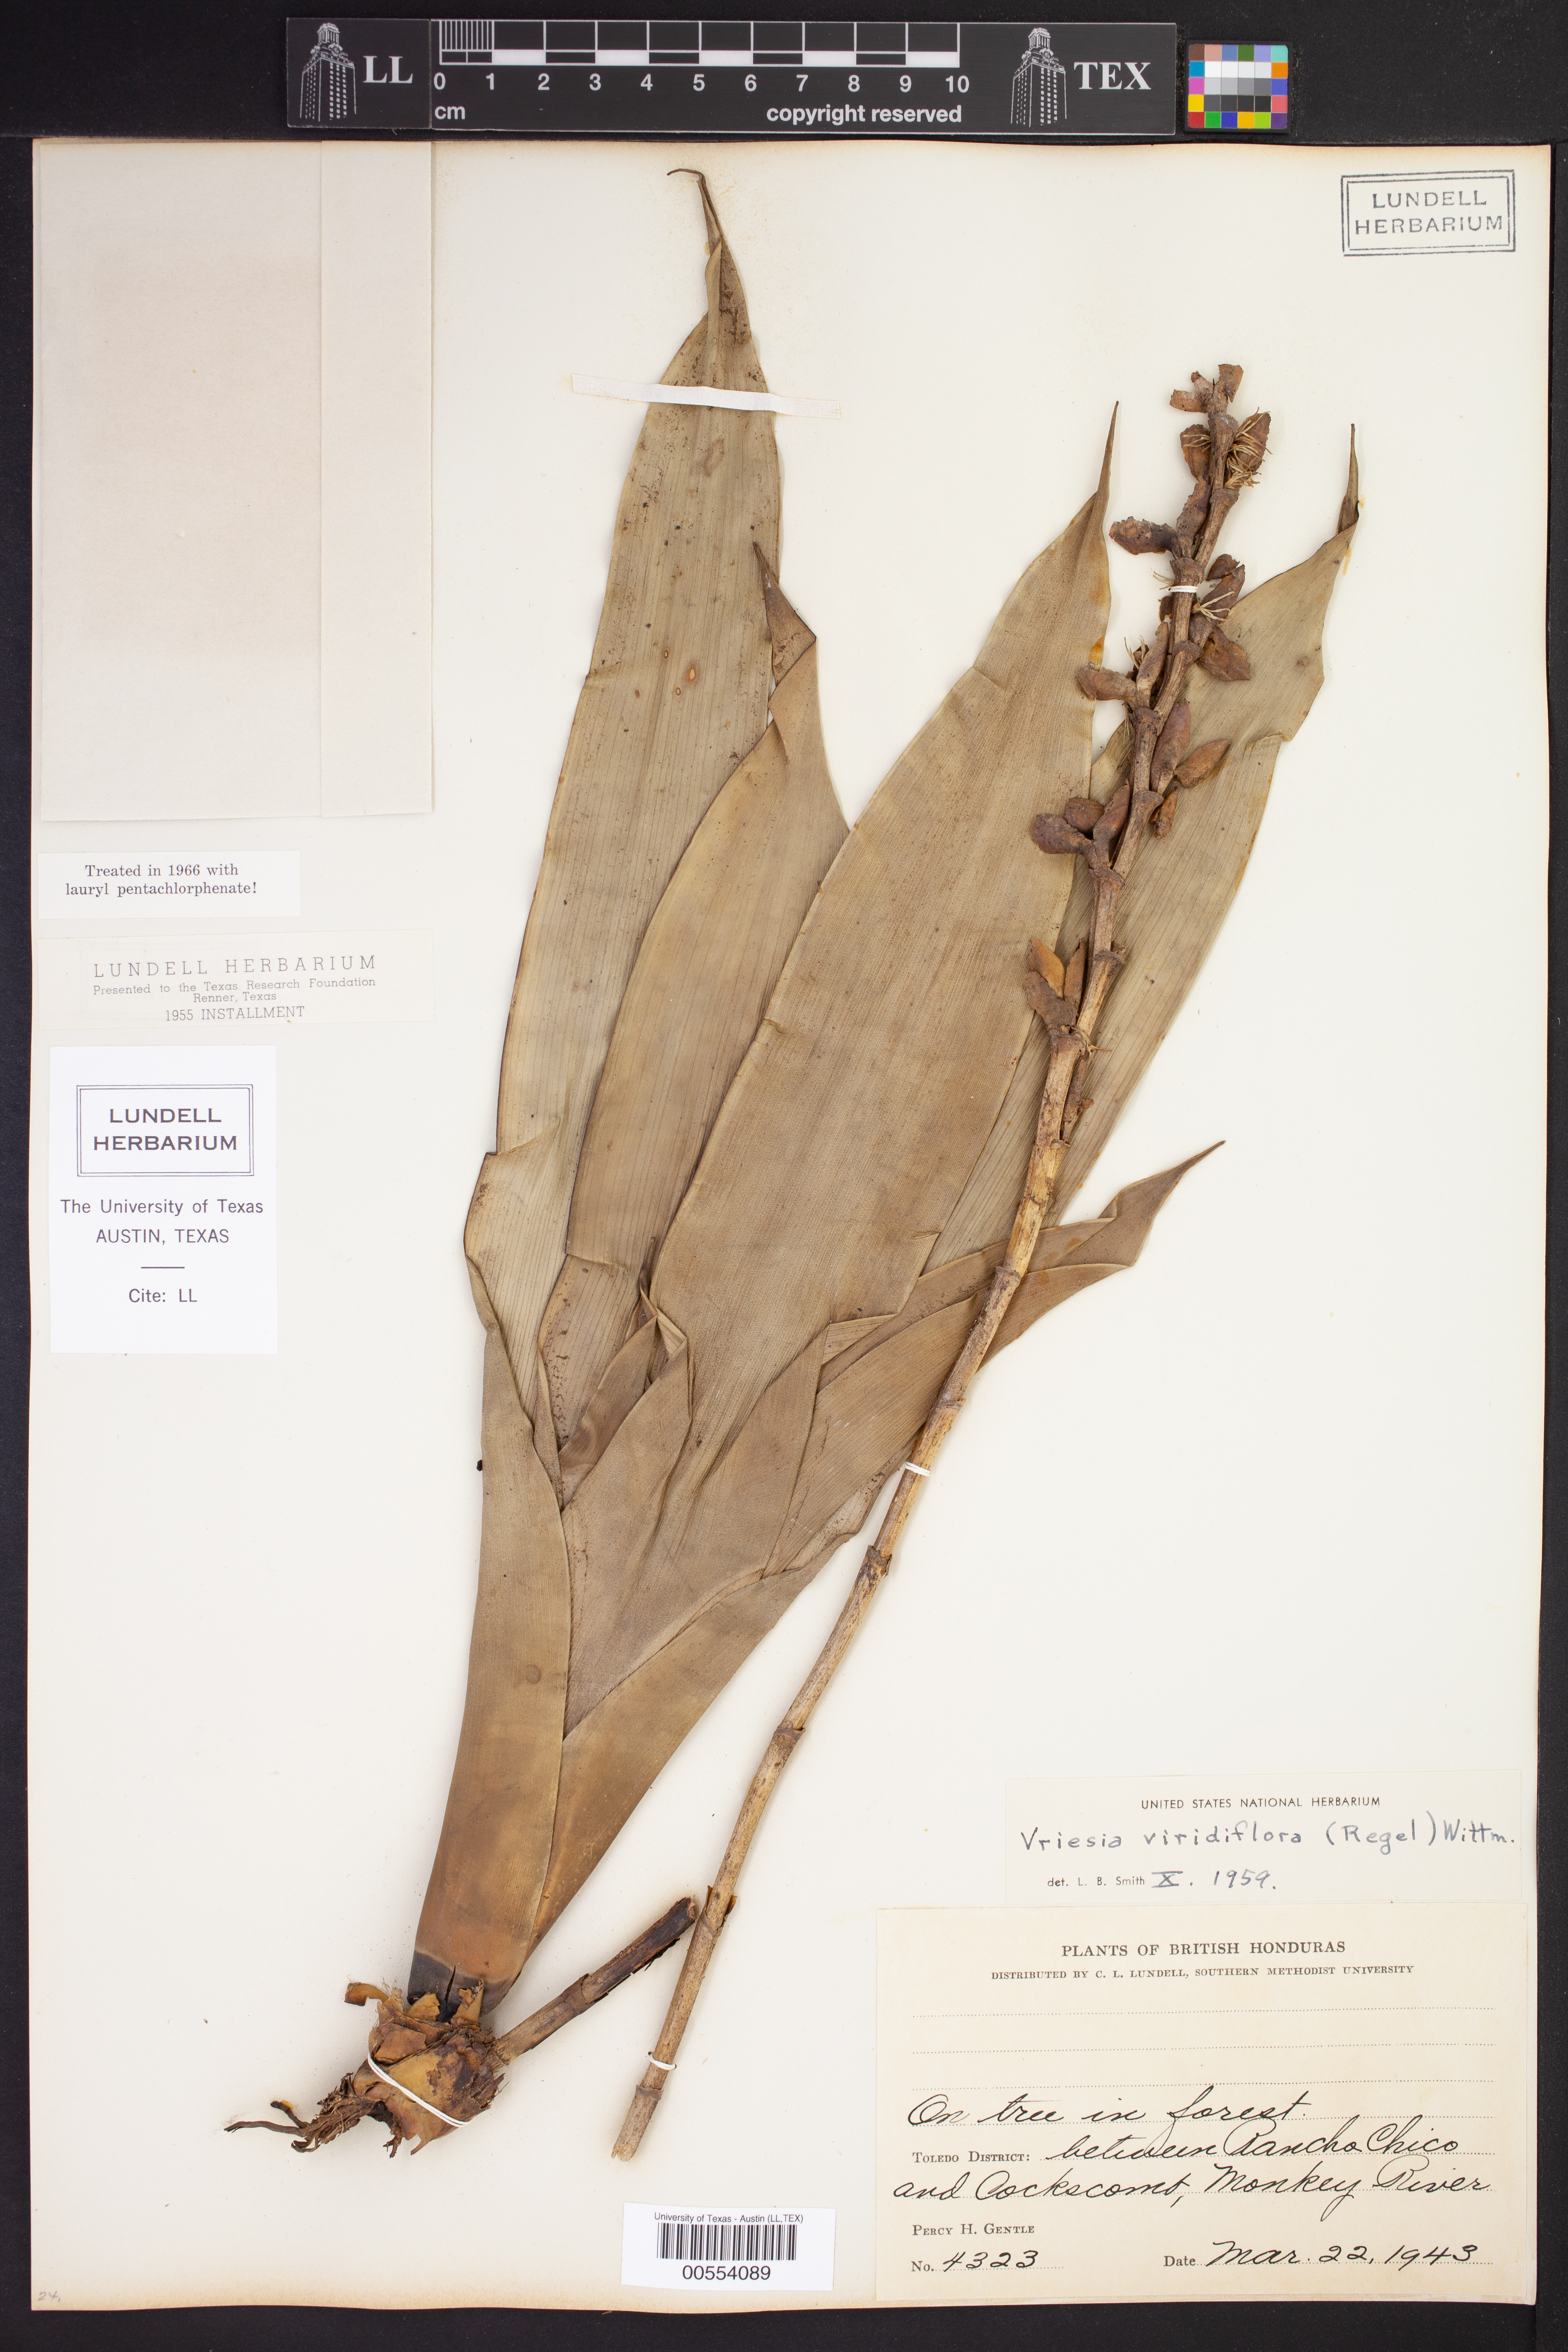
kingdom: Plantae
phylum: Tracheophyta
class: Liliopsida
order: Poales
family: Bromeliaceae
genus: Werauhia
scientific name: Werauhia viridiflora
